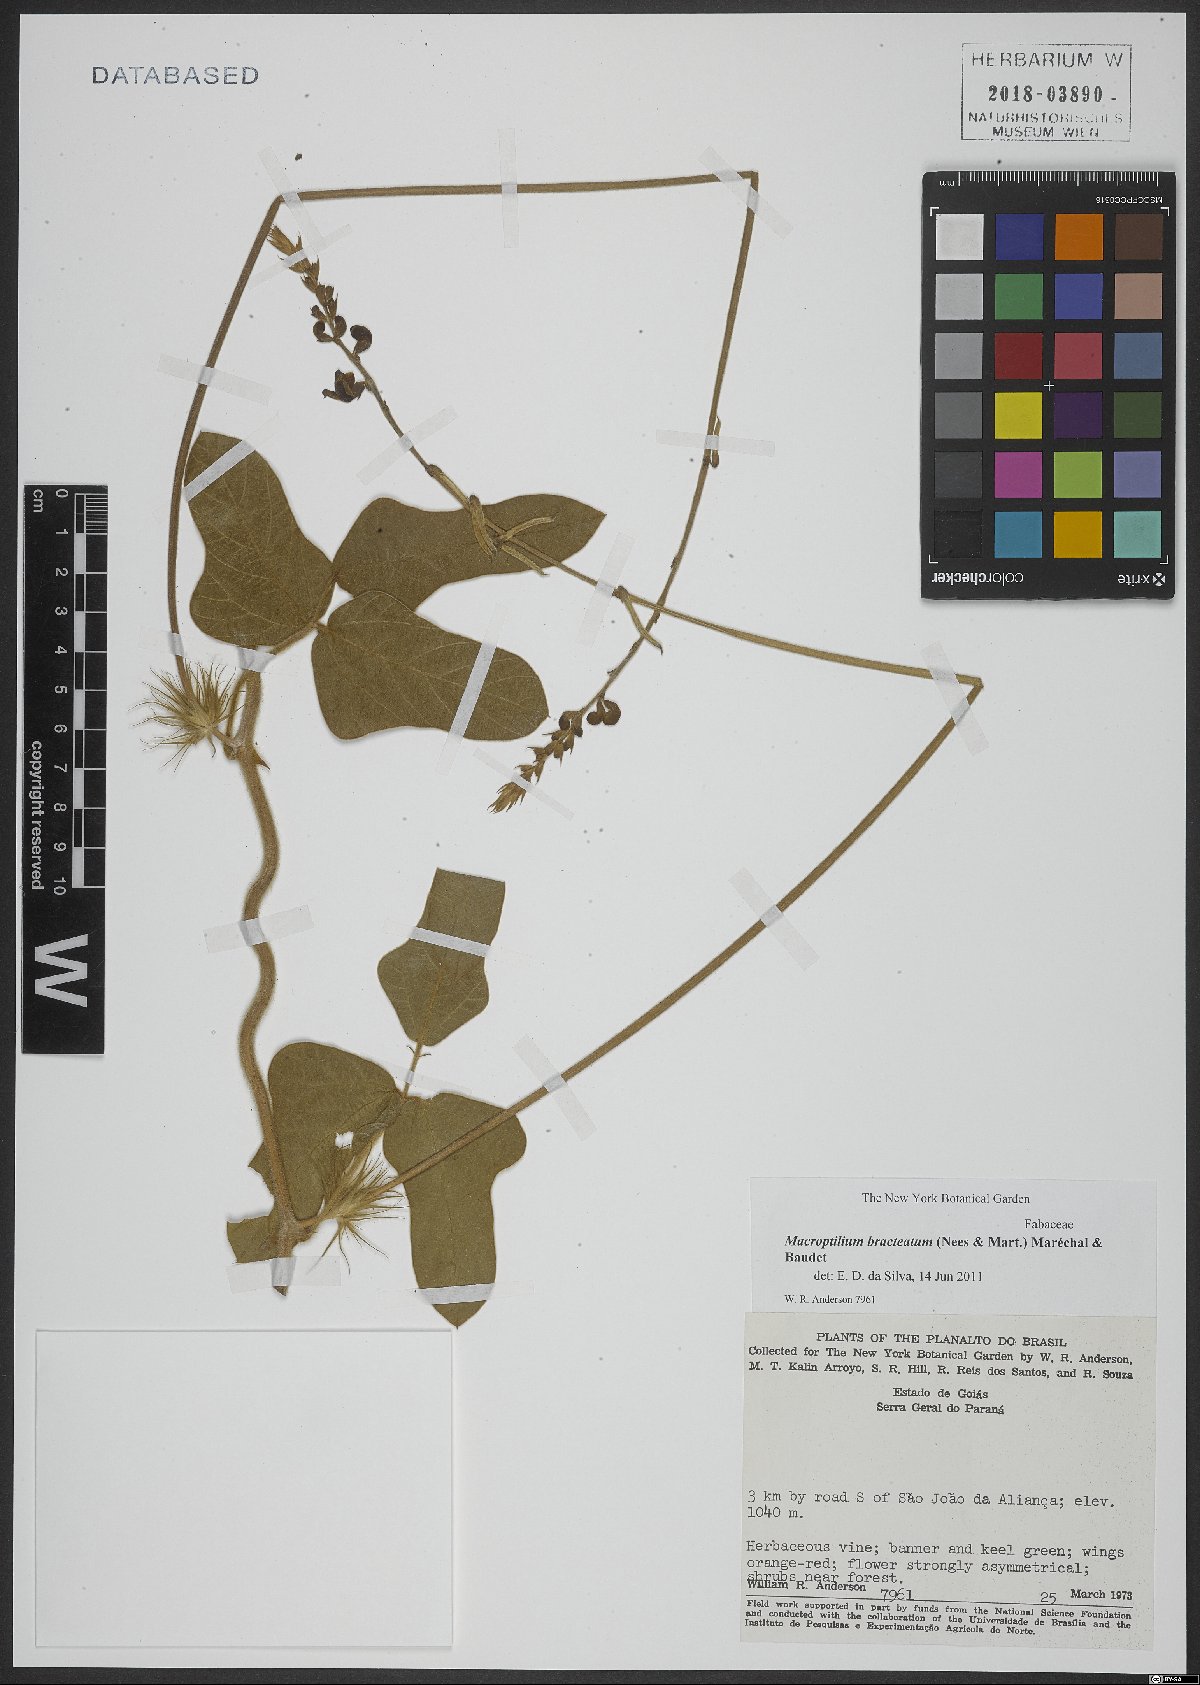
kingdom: Plantae
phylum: Tracheophyta
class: Magnoliopsida
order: Fabales
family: Fabaceae
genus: Macroptilium
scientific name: Macroptilium bracteatum
